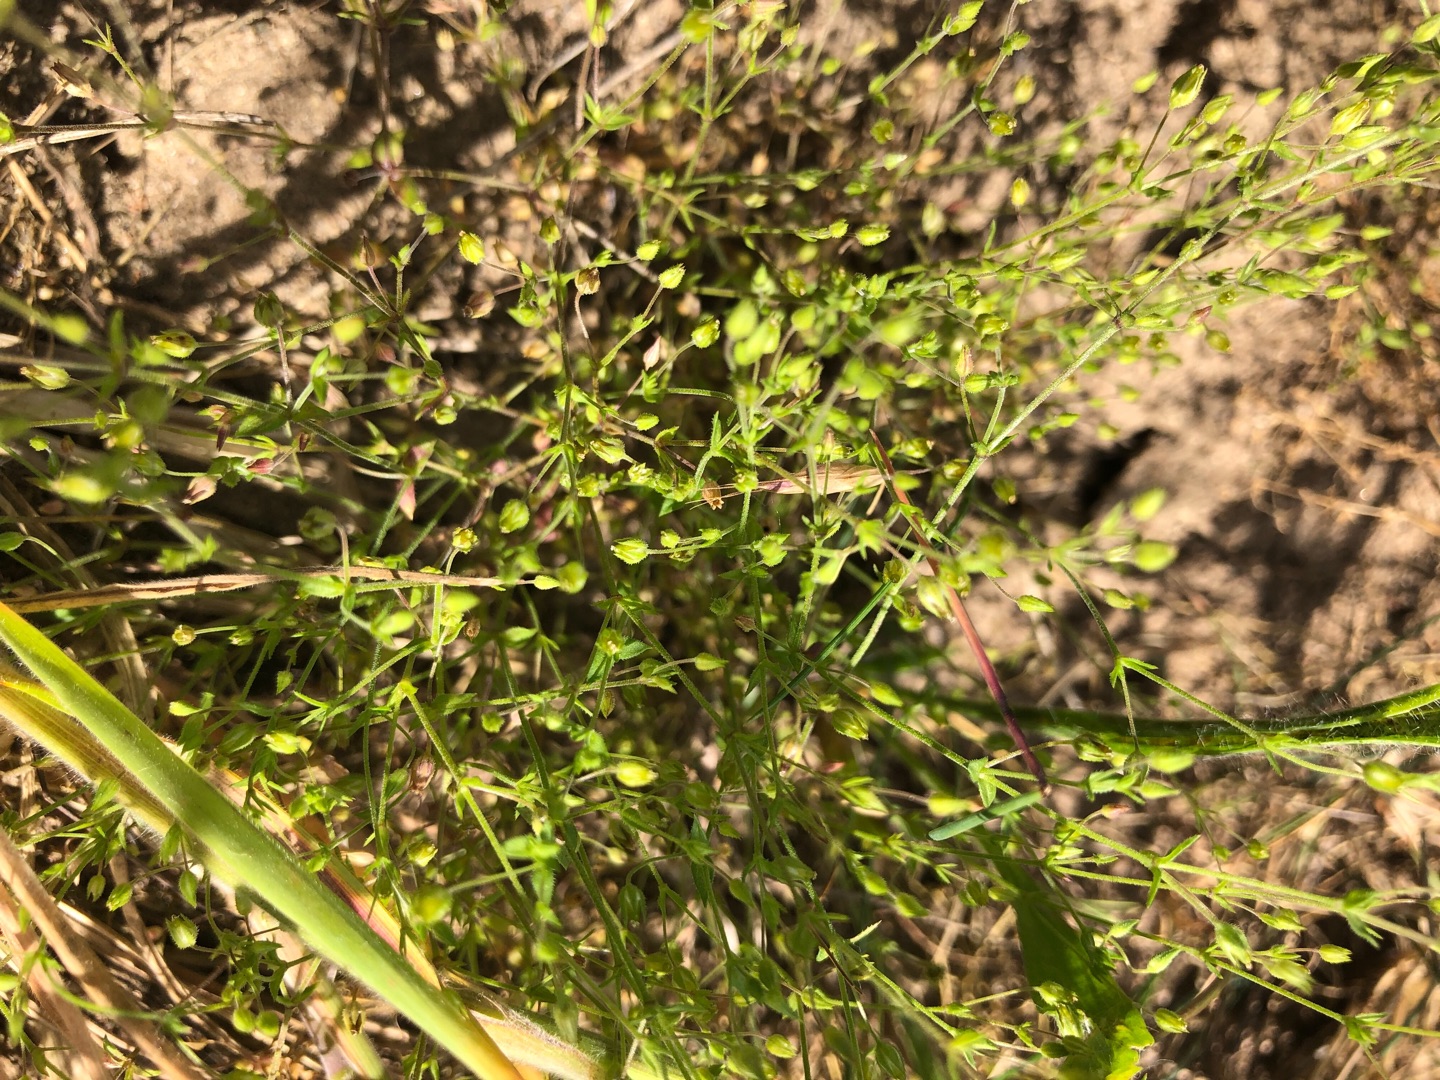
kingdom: Plantae
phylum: Tracheophyta
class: Magnoliopsida
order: Caryophyllales
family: Caryophyllaceae
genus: Arenaria
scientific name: Arenaria serpyllifolia
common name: Almindelig markarve
